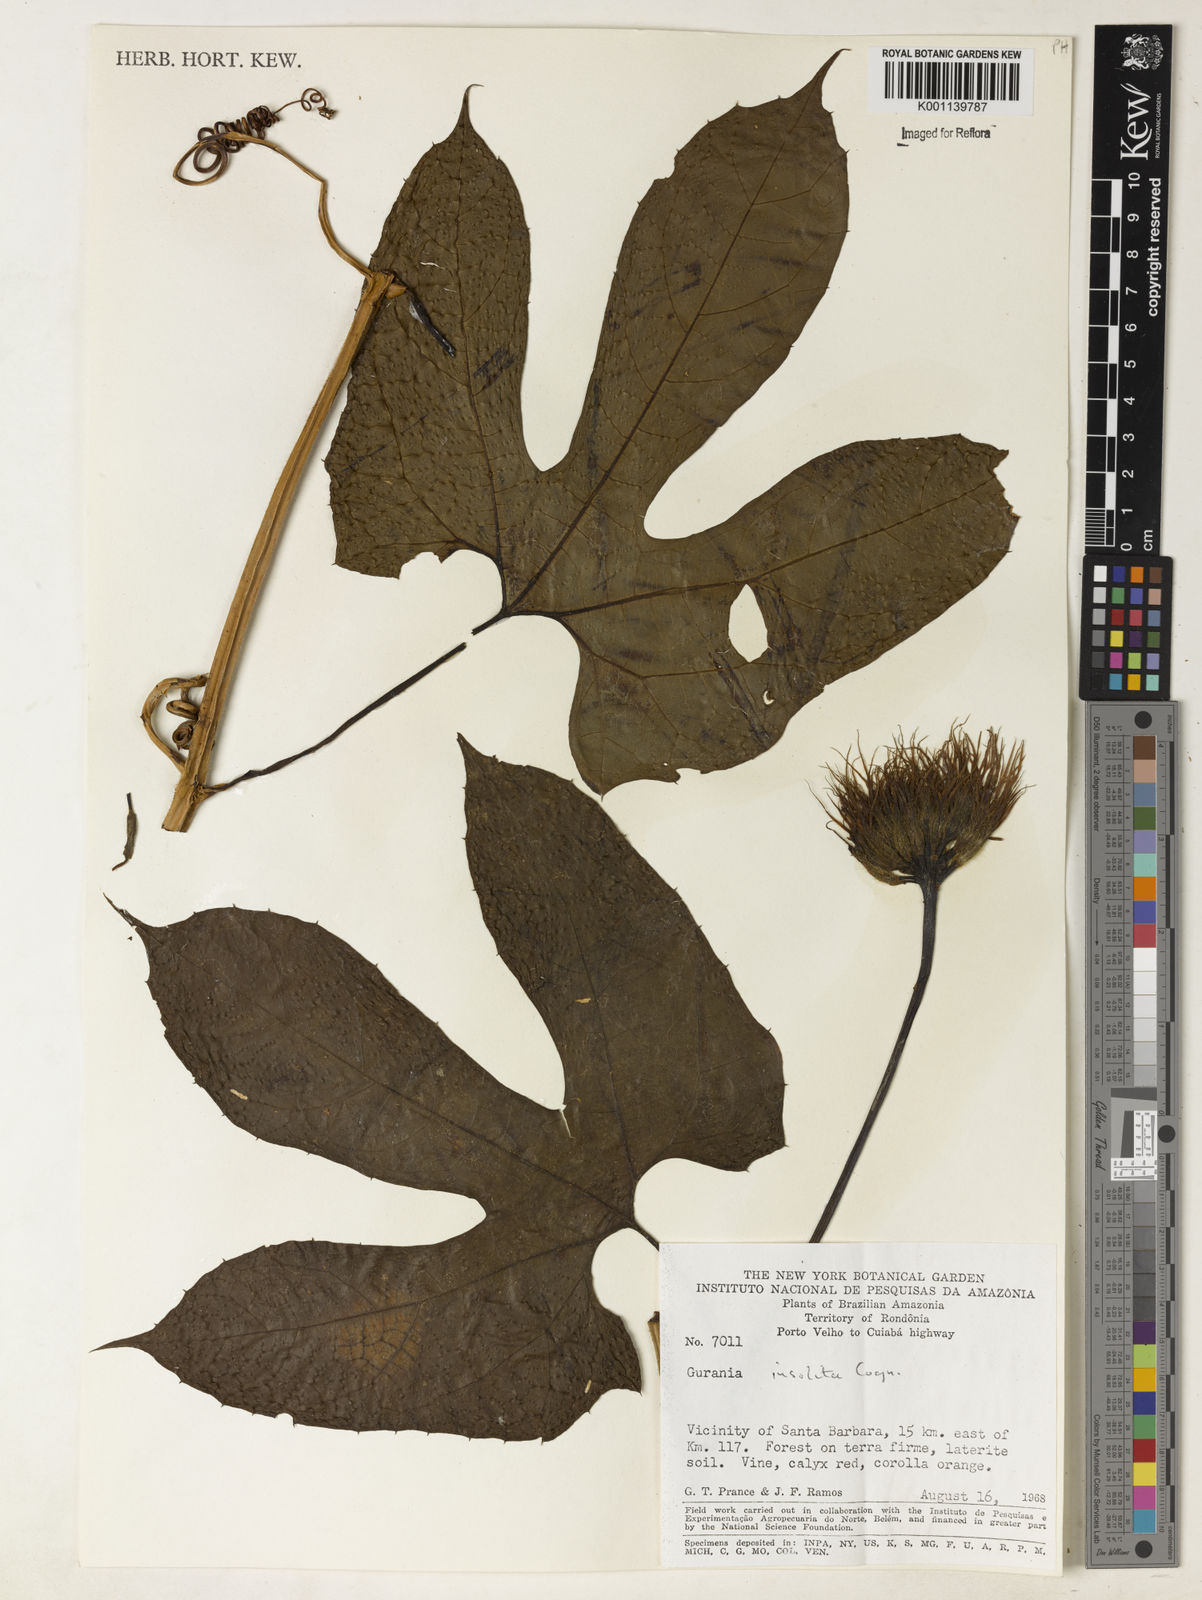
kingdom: Plantae
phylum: Tracheophyta
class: Magnoliopsida
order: Cucurbitales
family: Cucurbitaceae
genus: Gurania
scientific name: Gurania sinuata
